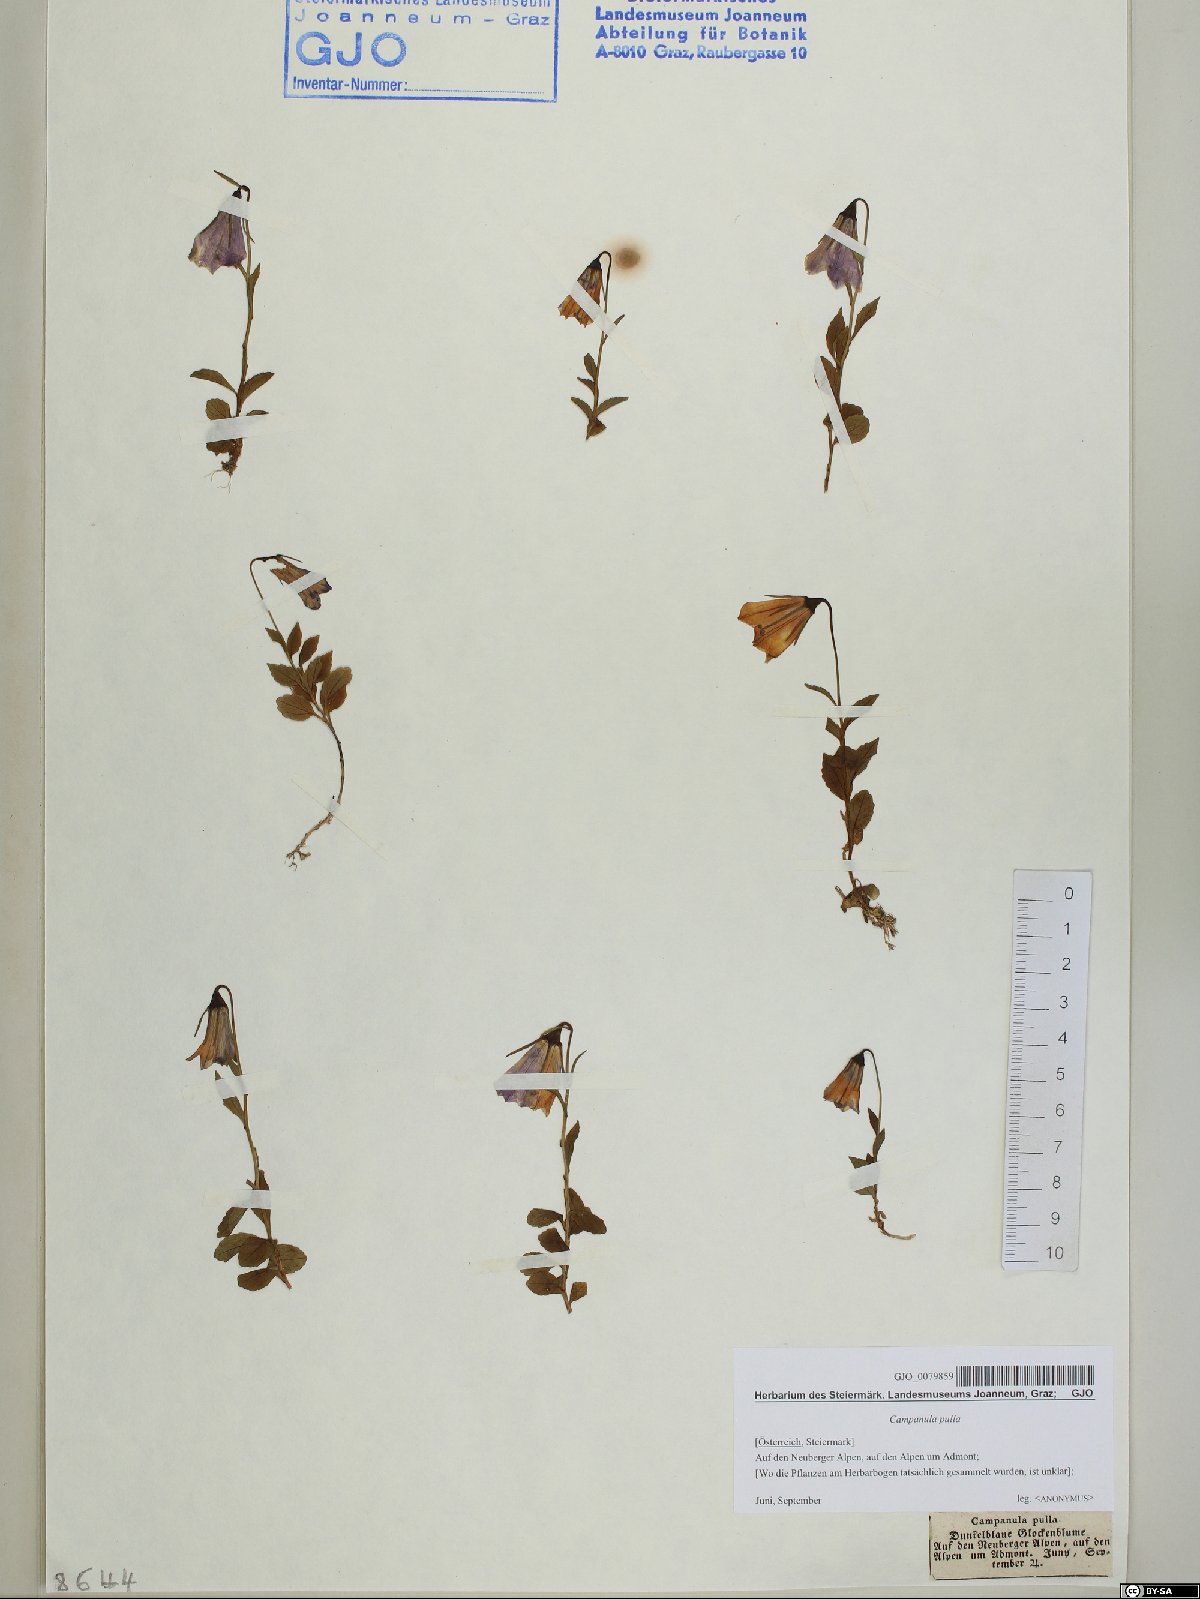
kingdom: Plantae
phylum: Tracheophyta
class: Magnoliopsida
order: Asterales
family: Campanulaceae
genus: Campanula
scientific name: Campanula pulla
